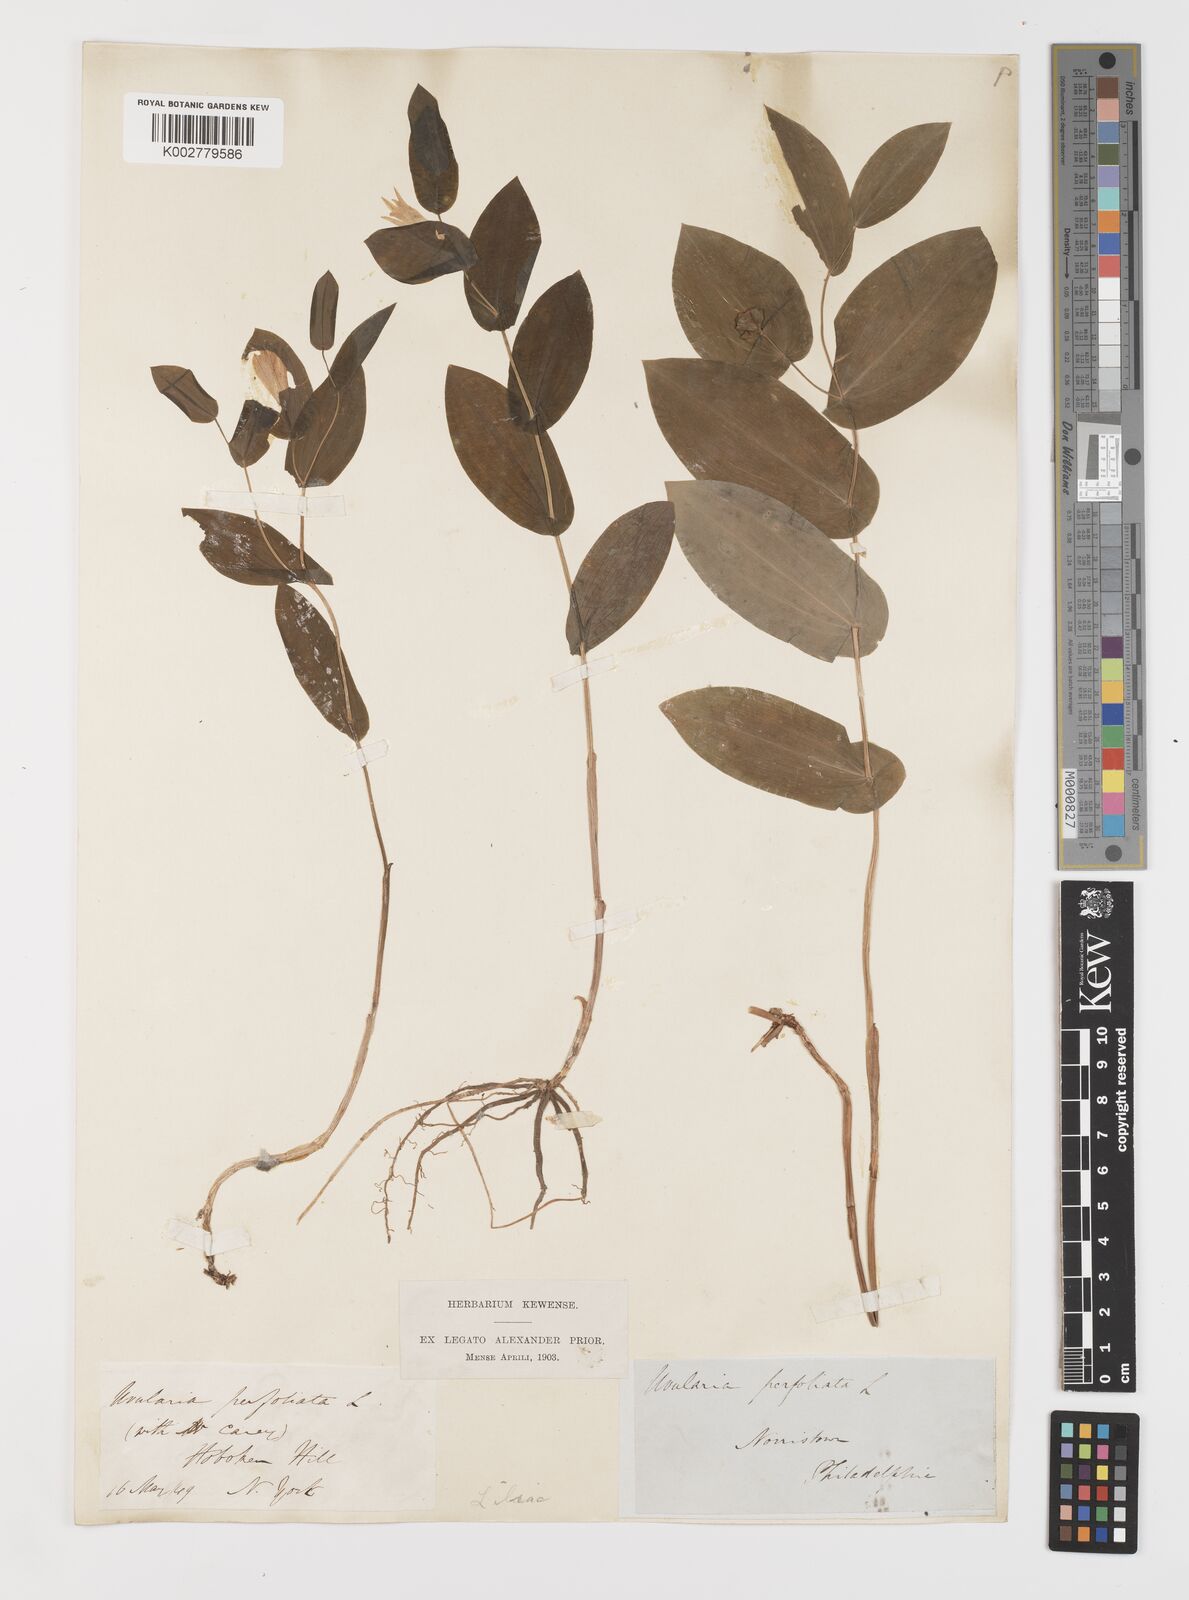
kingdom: Plantae
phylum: Tracheophyta
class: Liliopsida
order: Liliales
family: Colchicaceae
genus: Uvularia
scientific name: Uvularia perfoliata
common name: Perfoliate bellwort
